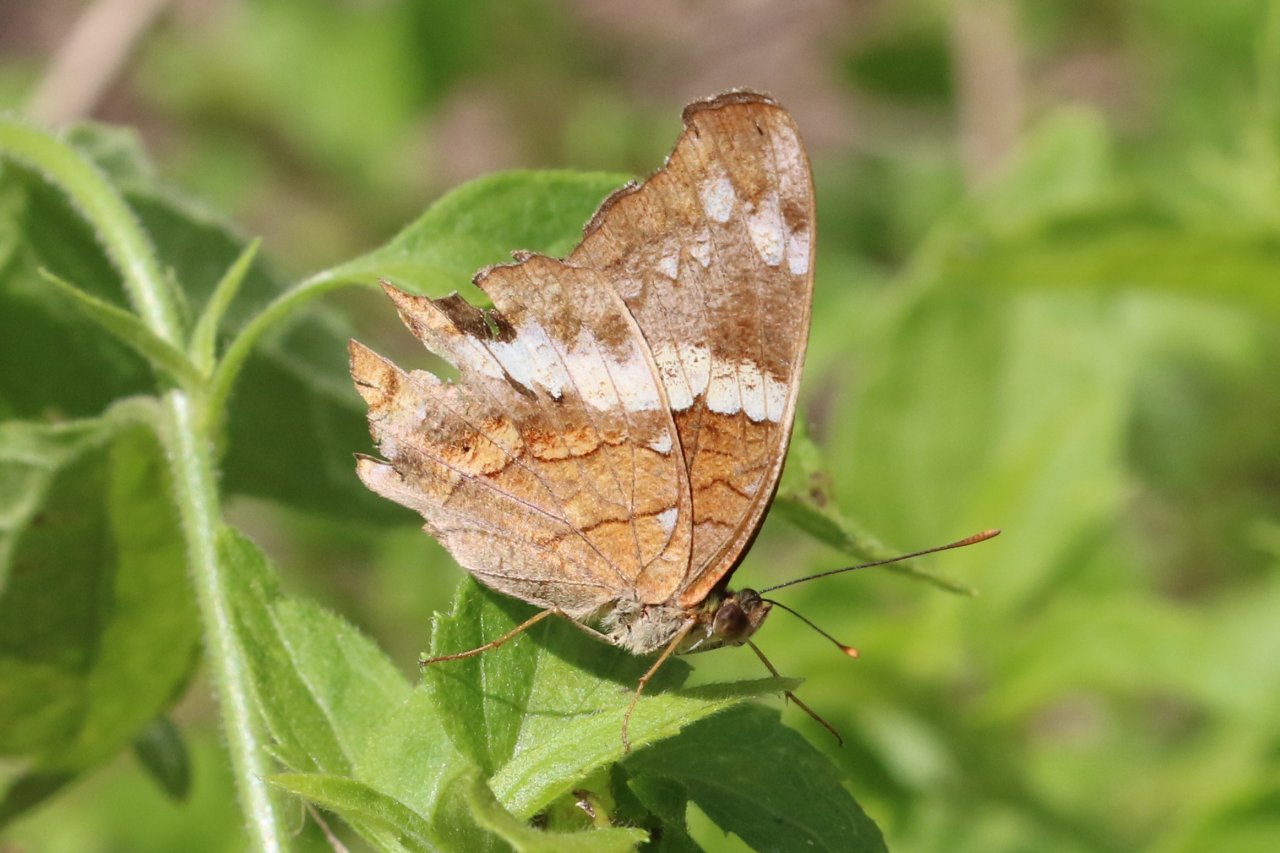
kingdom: Animalia
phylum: Arthropoda
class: Insecta
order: Lepidoptera
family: Nymphalidae
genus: Anartia
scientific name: Anartia fatima
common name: Banded Peacock
